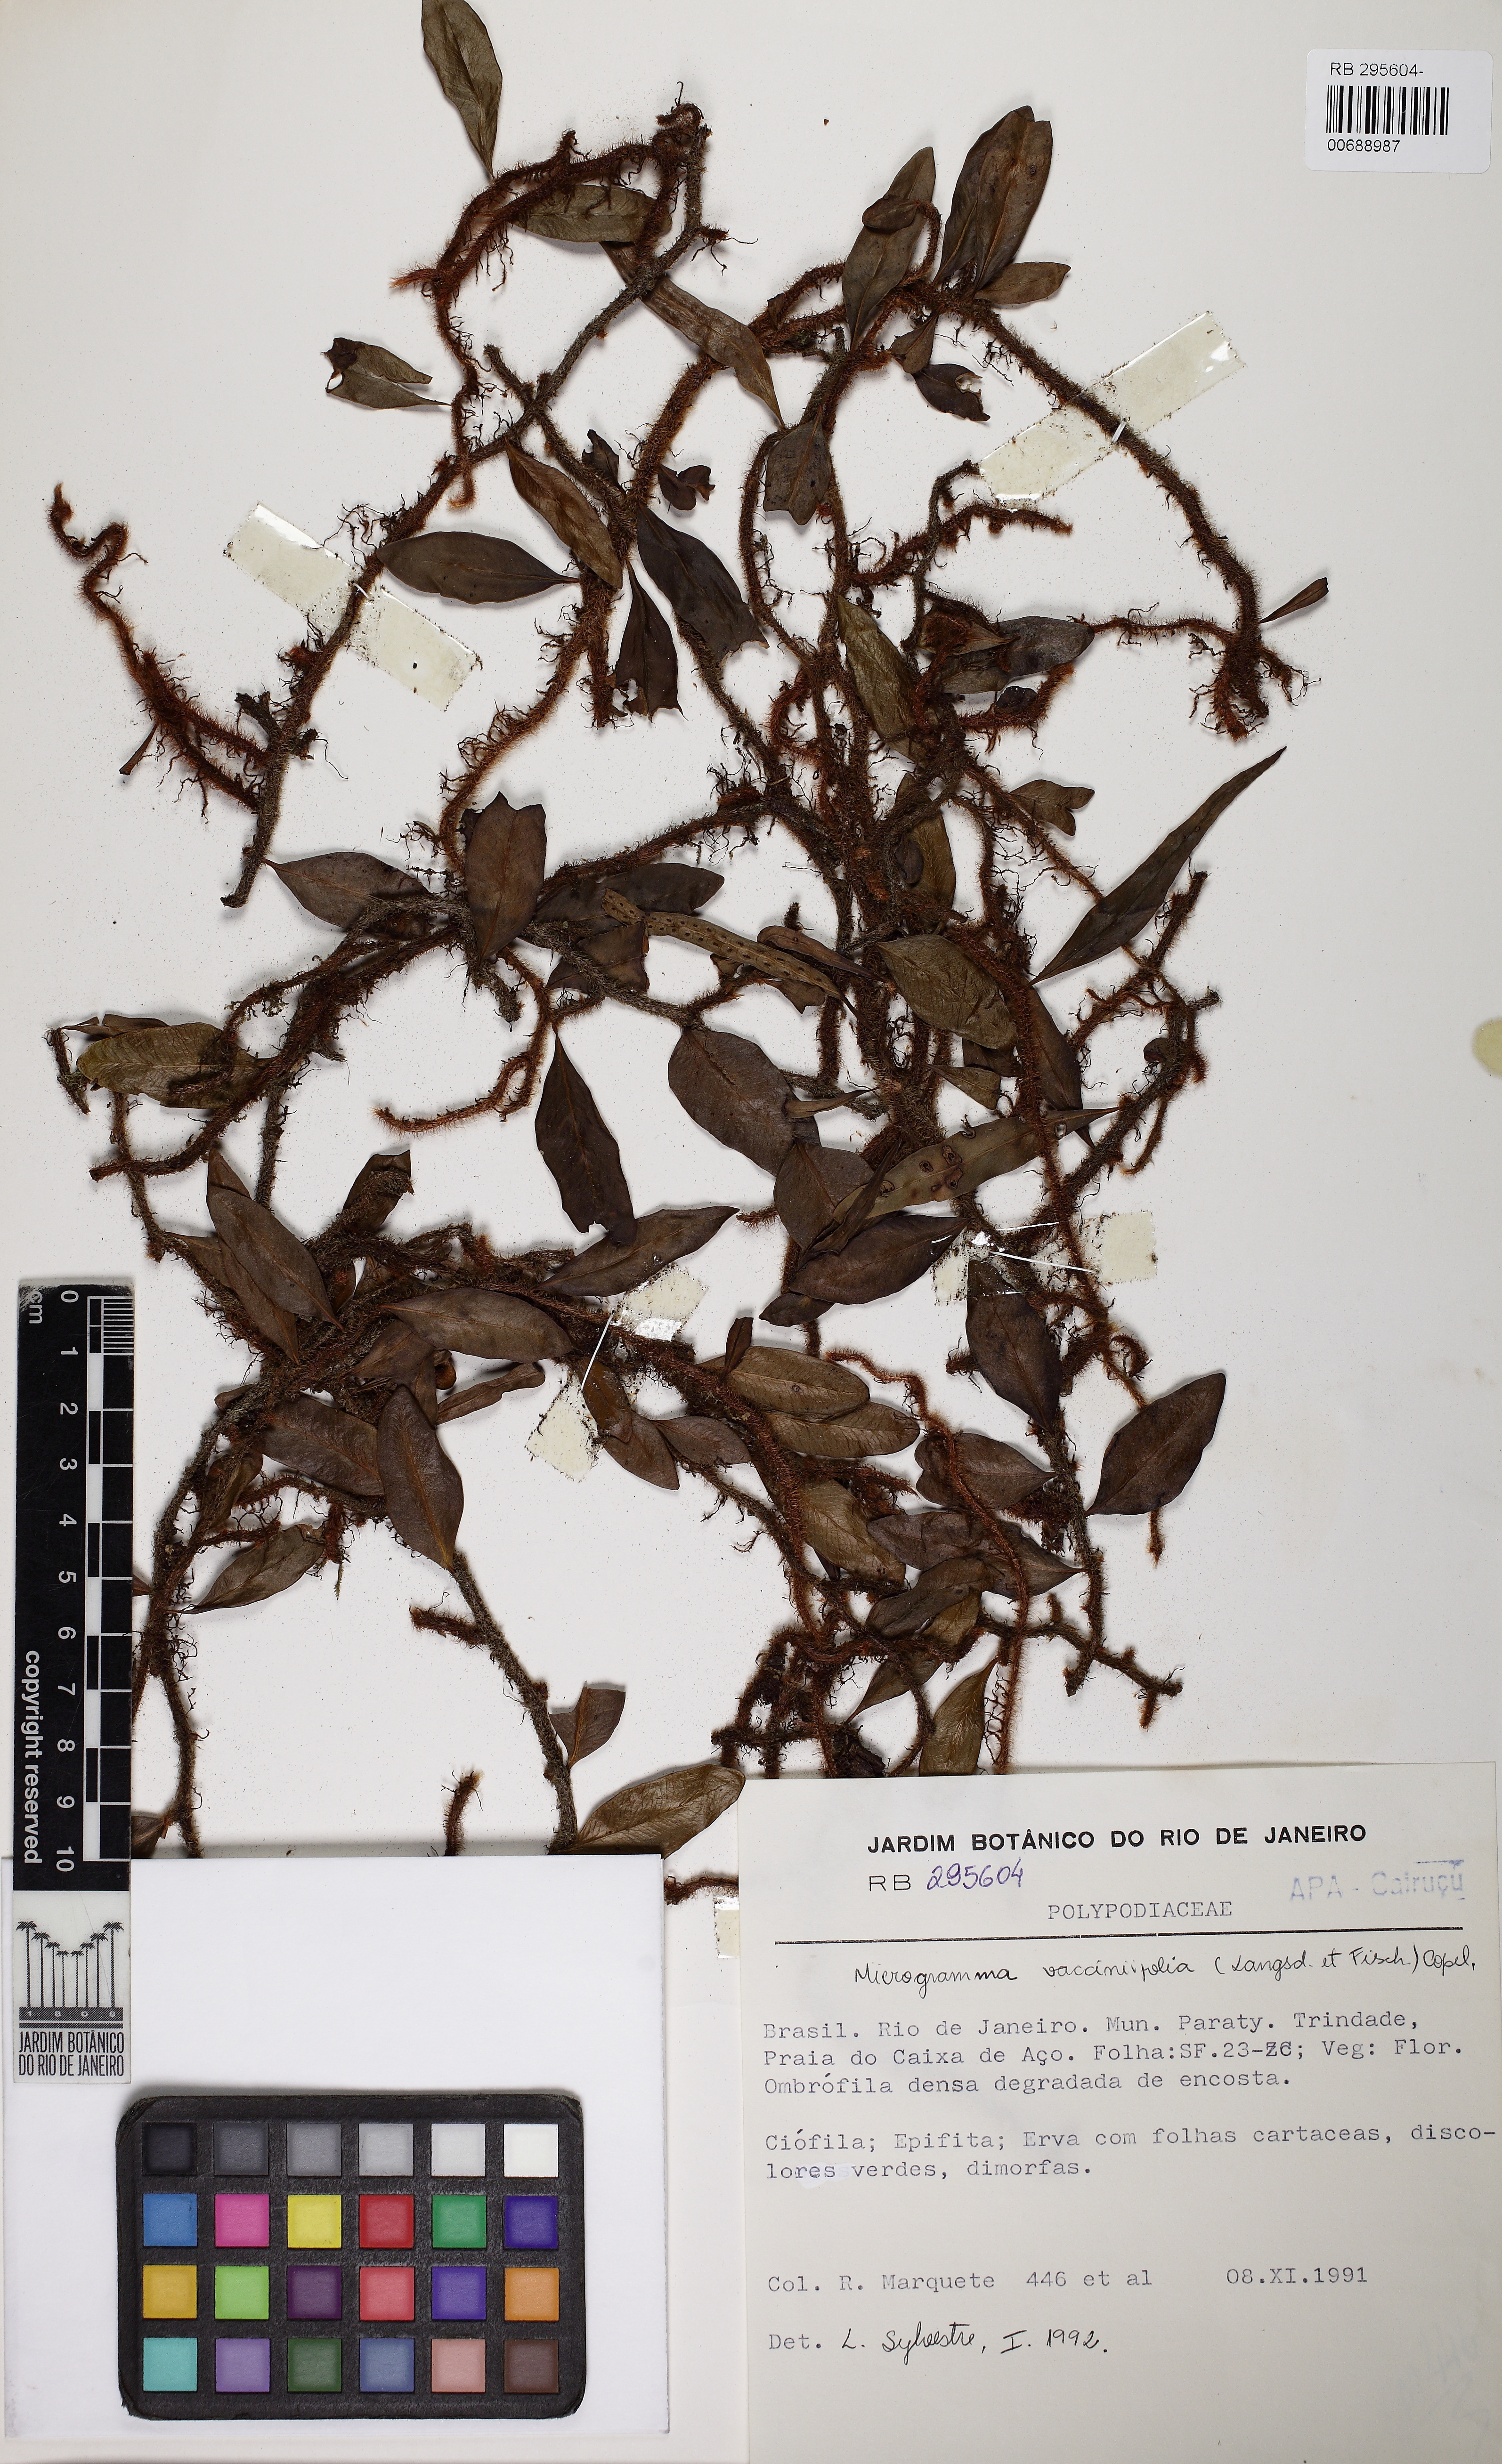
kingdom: Plantae
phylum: Tracheophyta
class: Polypodiopsida
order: Polypodiales
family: Polypodiaceae
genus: Microgramma
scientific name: Microgramma crispata
